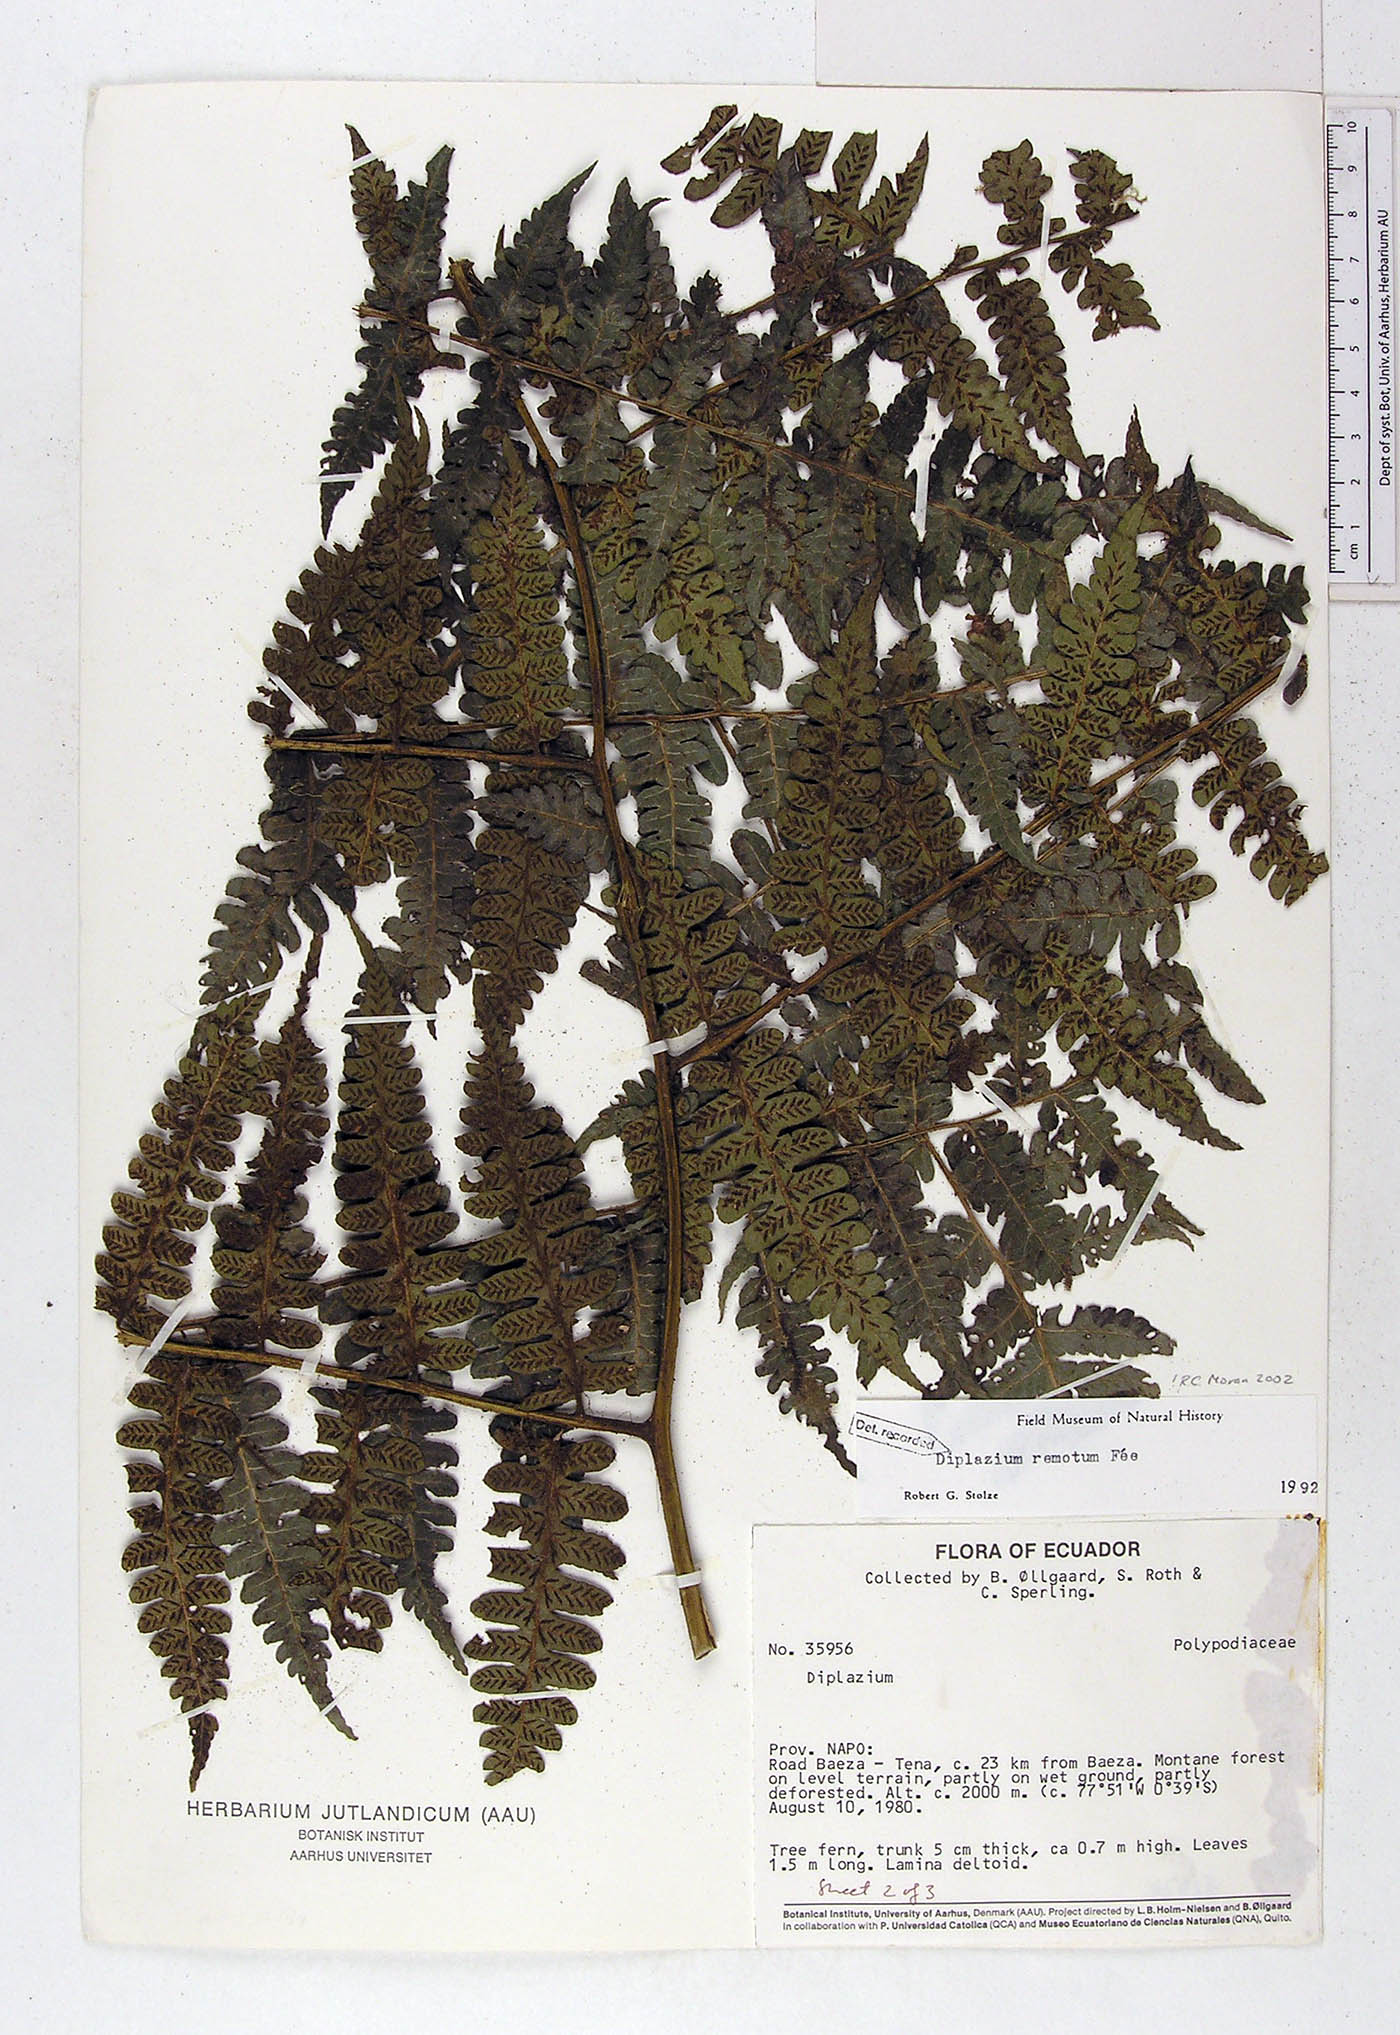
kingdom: Plantae
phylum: Tracheophyta
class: Polypodiopsida
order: Polypodiales
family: Athyriaceae
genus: Diplazium
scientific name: Diplazium rostratum
